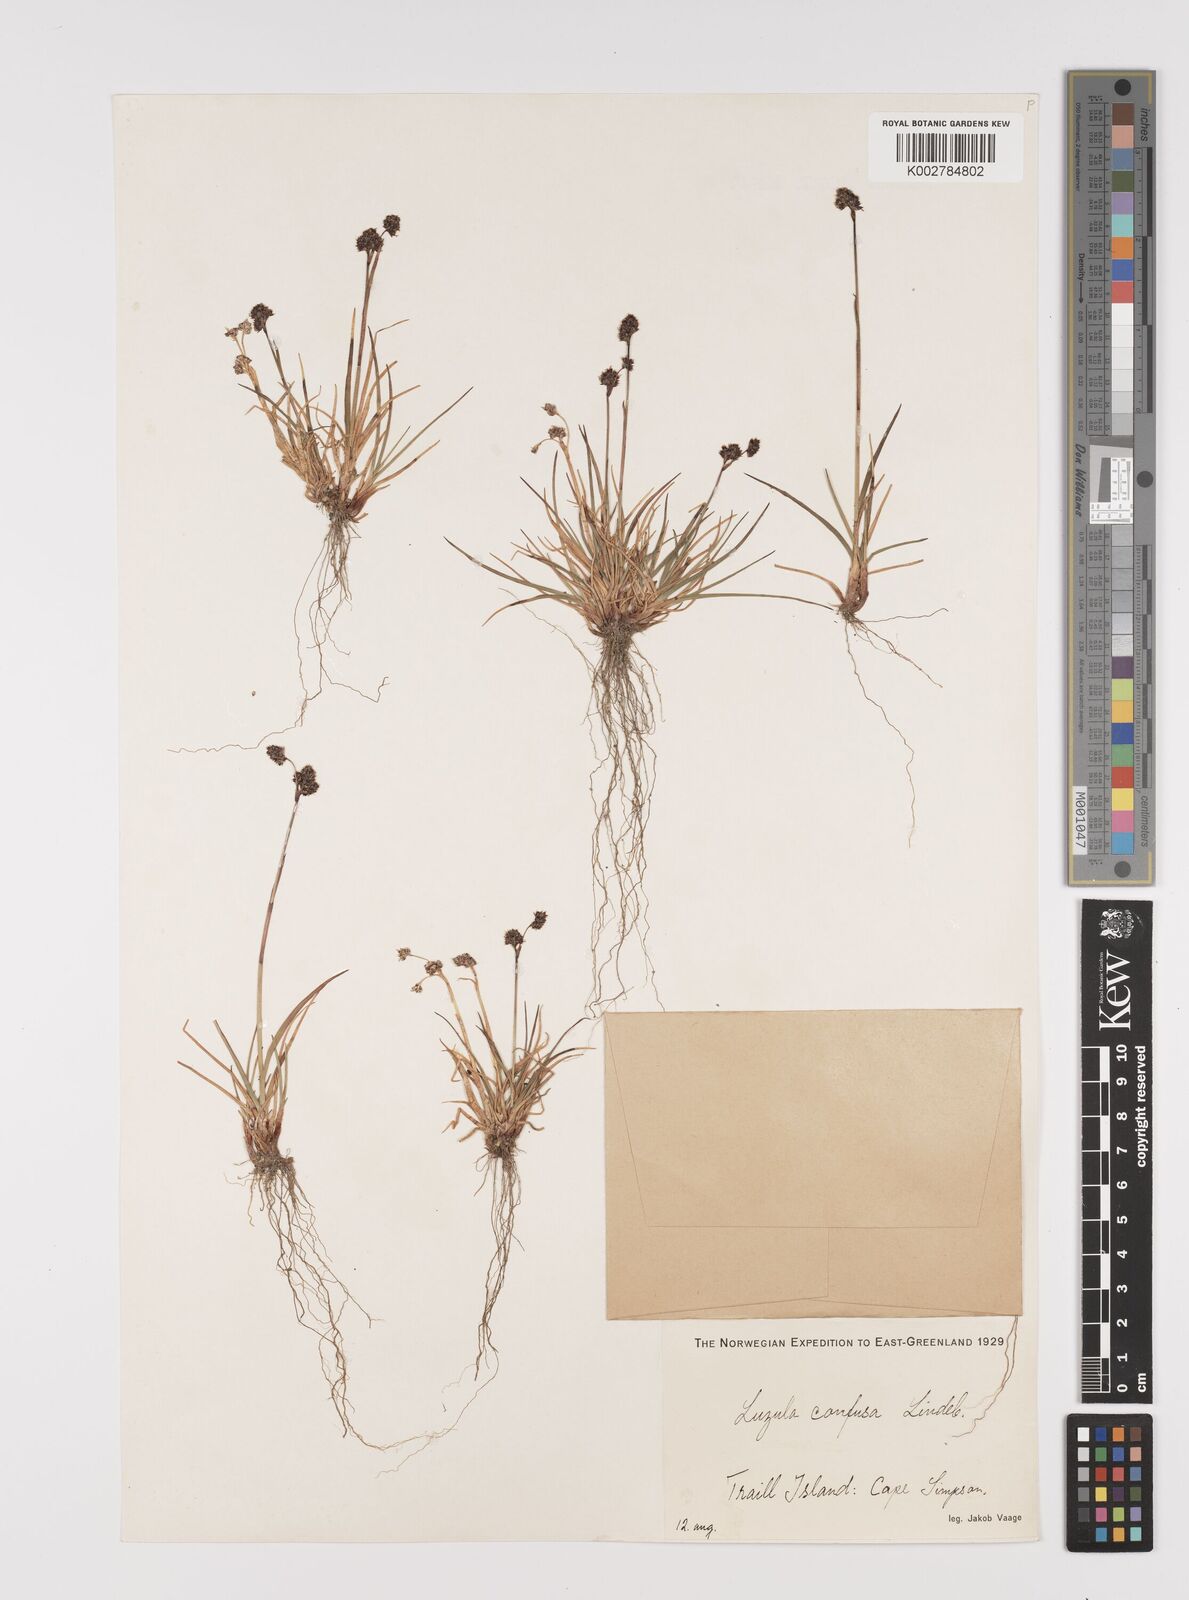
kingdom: Plantae
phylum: Tracheophyta
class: Liliopsida
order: Poales
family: Juncaceae
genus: Luzula
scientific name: Luzula confusa
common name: Northern wood rush
